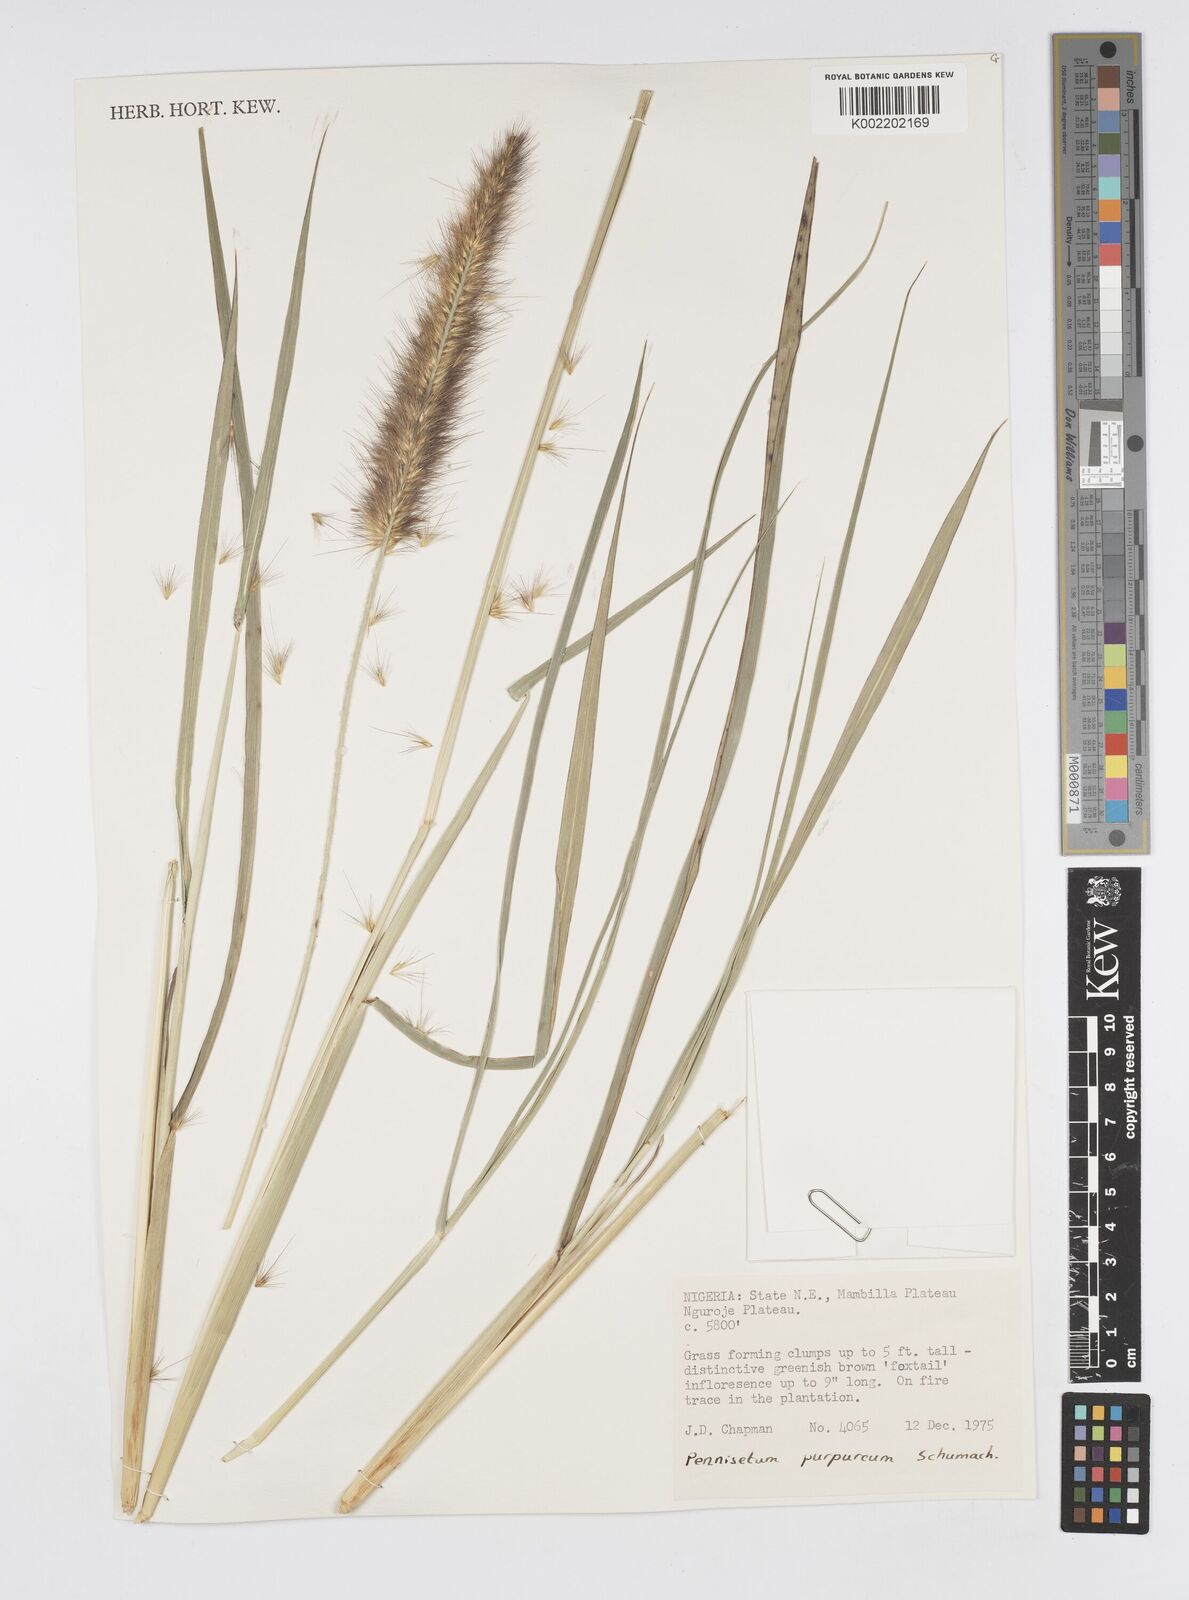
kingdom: Plantae
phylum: Tracheophyta
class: Liliopsida
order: Poales
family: Poaceae
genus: Cenchrus
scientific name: Cenchrus purpureus
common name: Elephant grass
